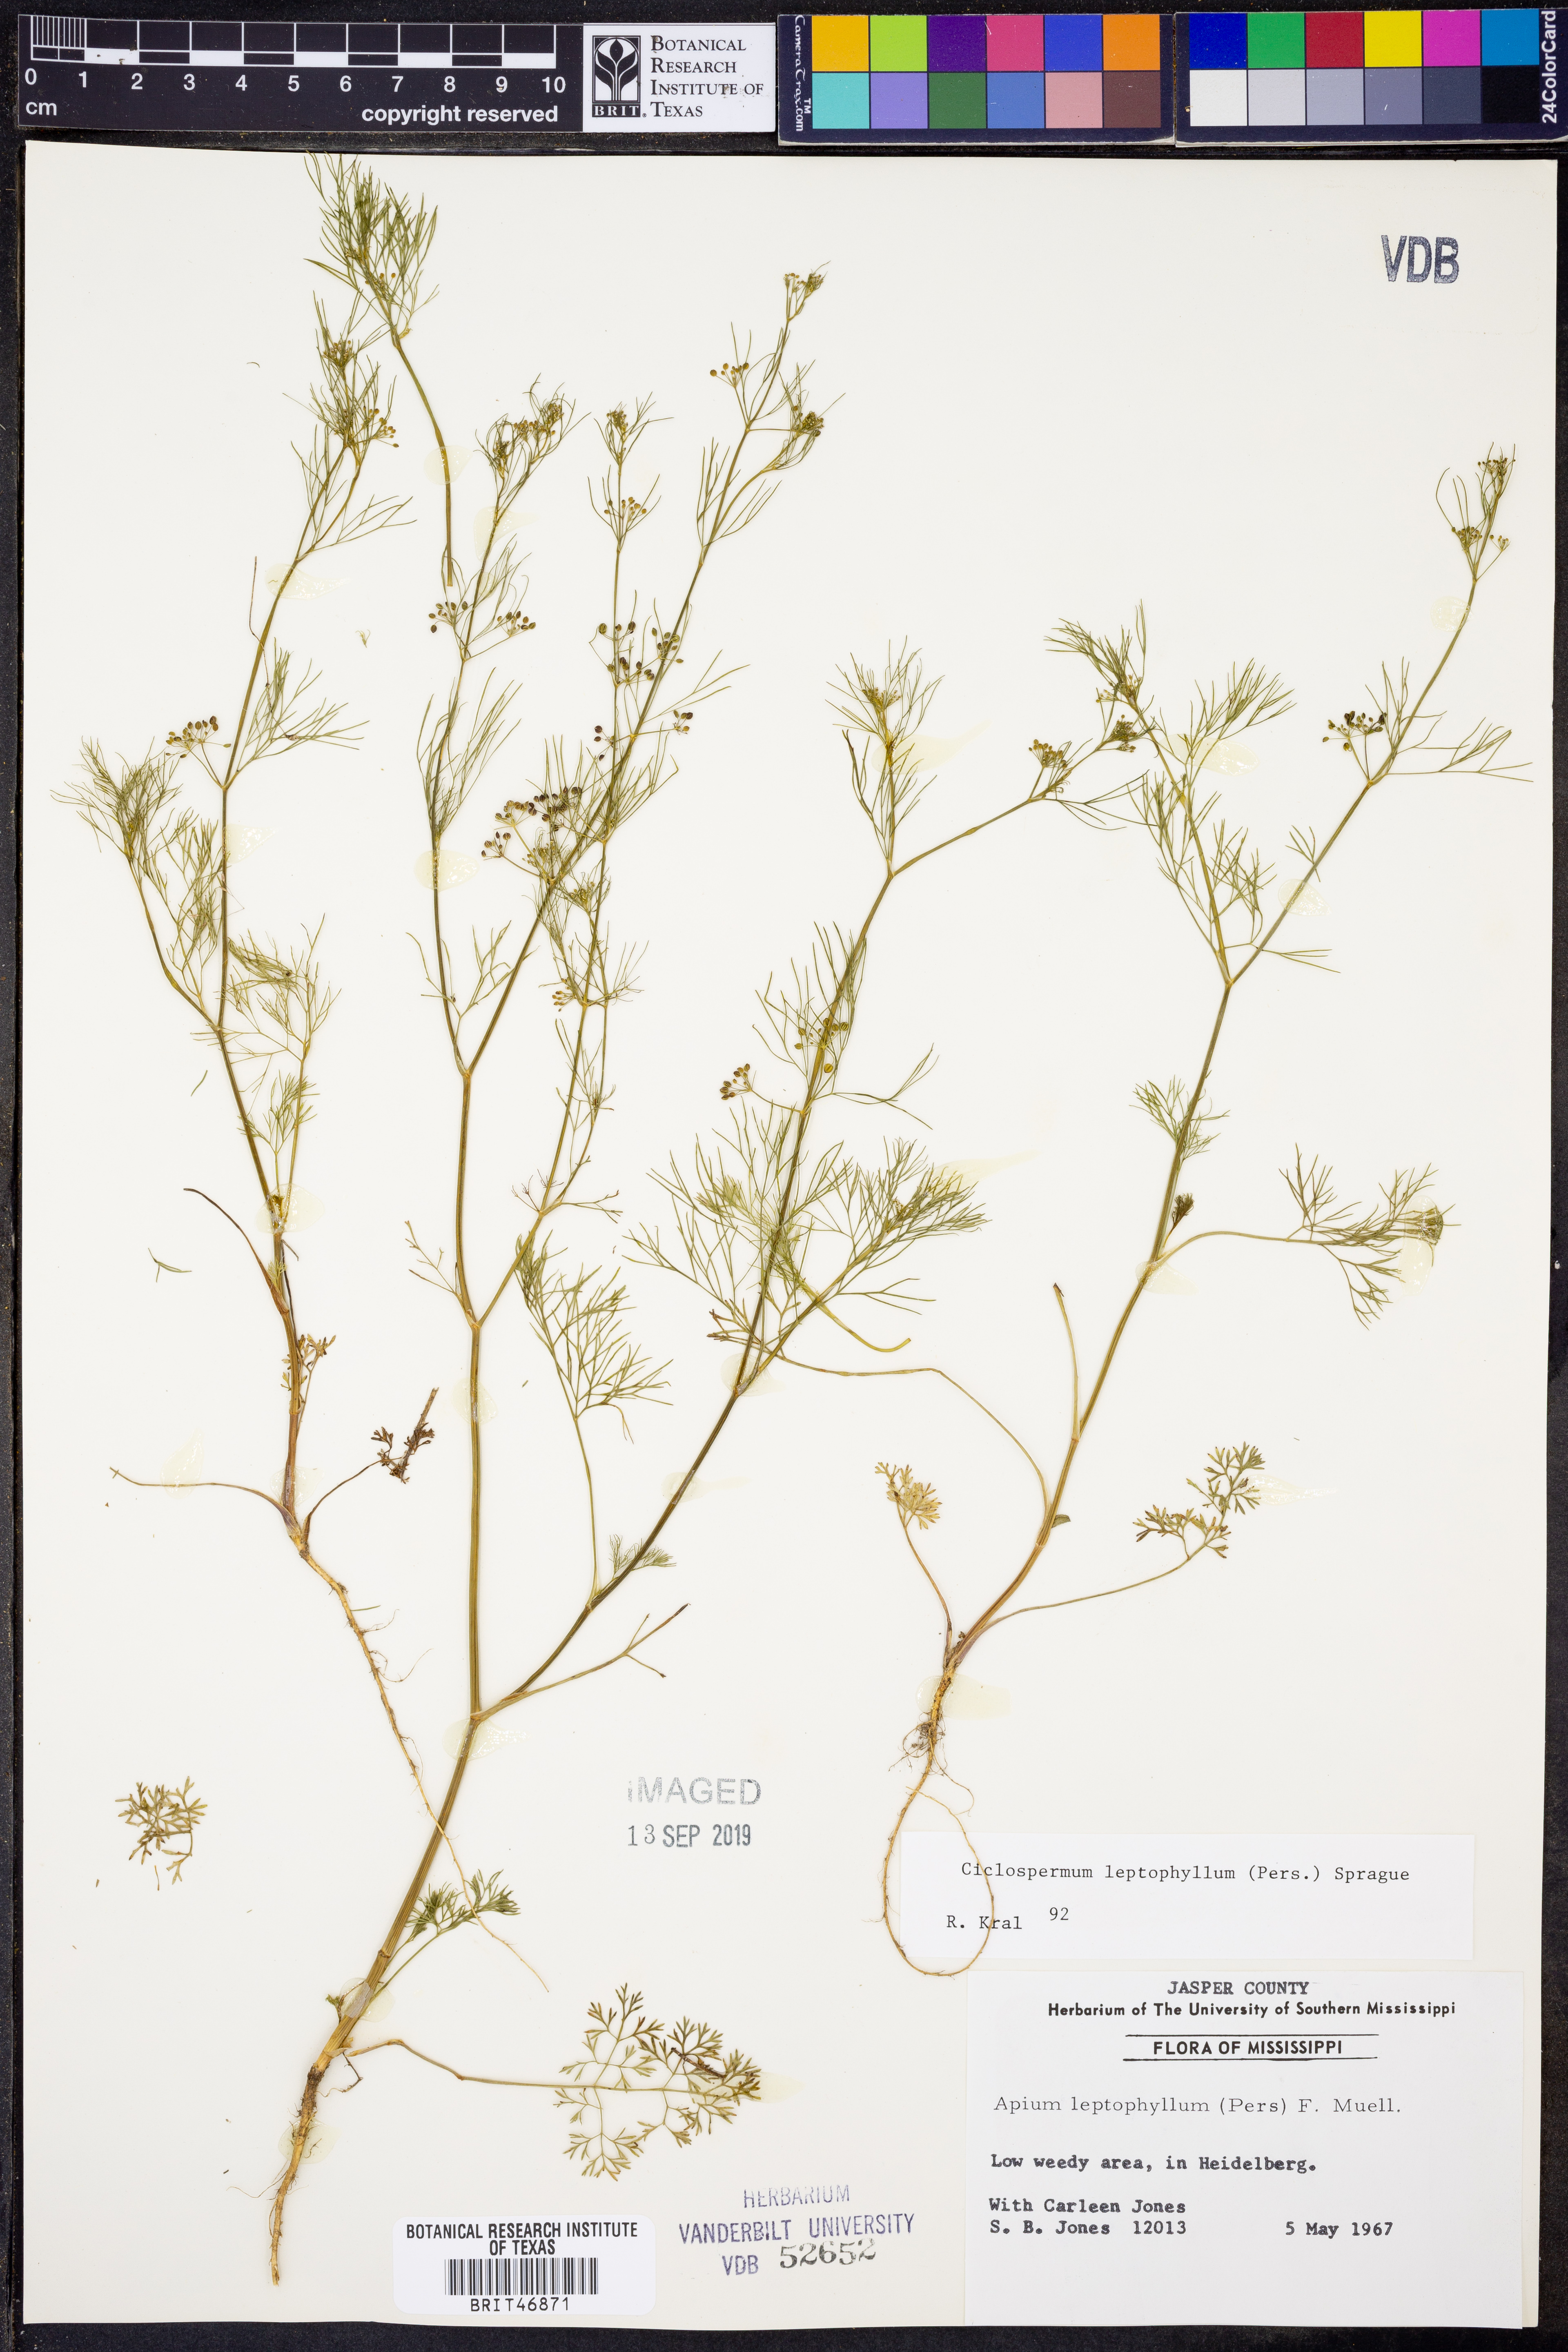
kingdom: Plantae
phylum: Tracheophyta
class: Magnoliopsida
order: Apiales
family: Apiaceae
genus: Cyclospermum
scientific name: Cyclospermum leptophyllum
